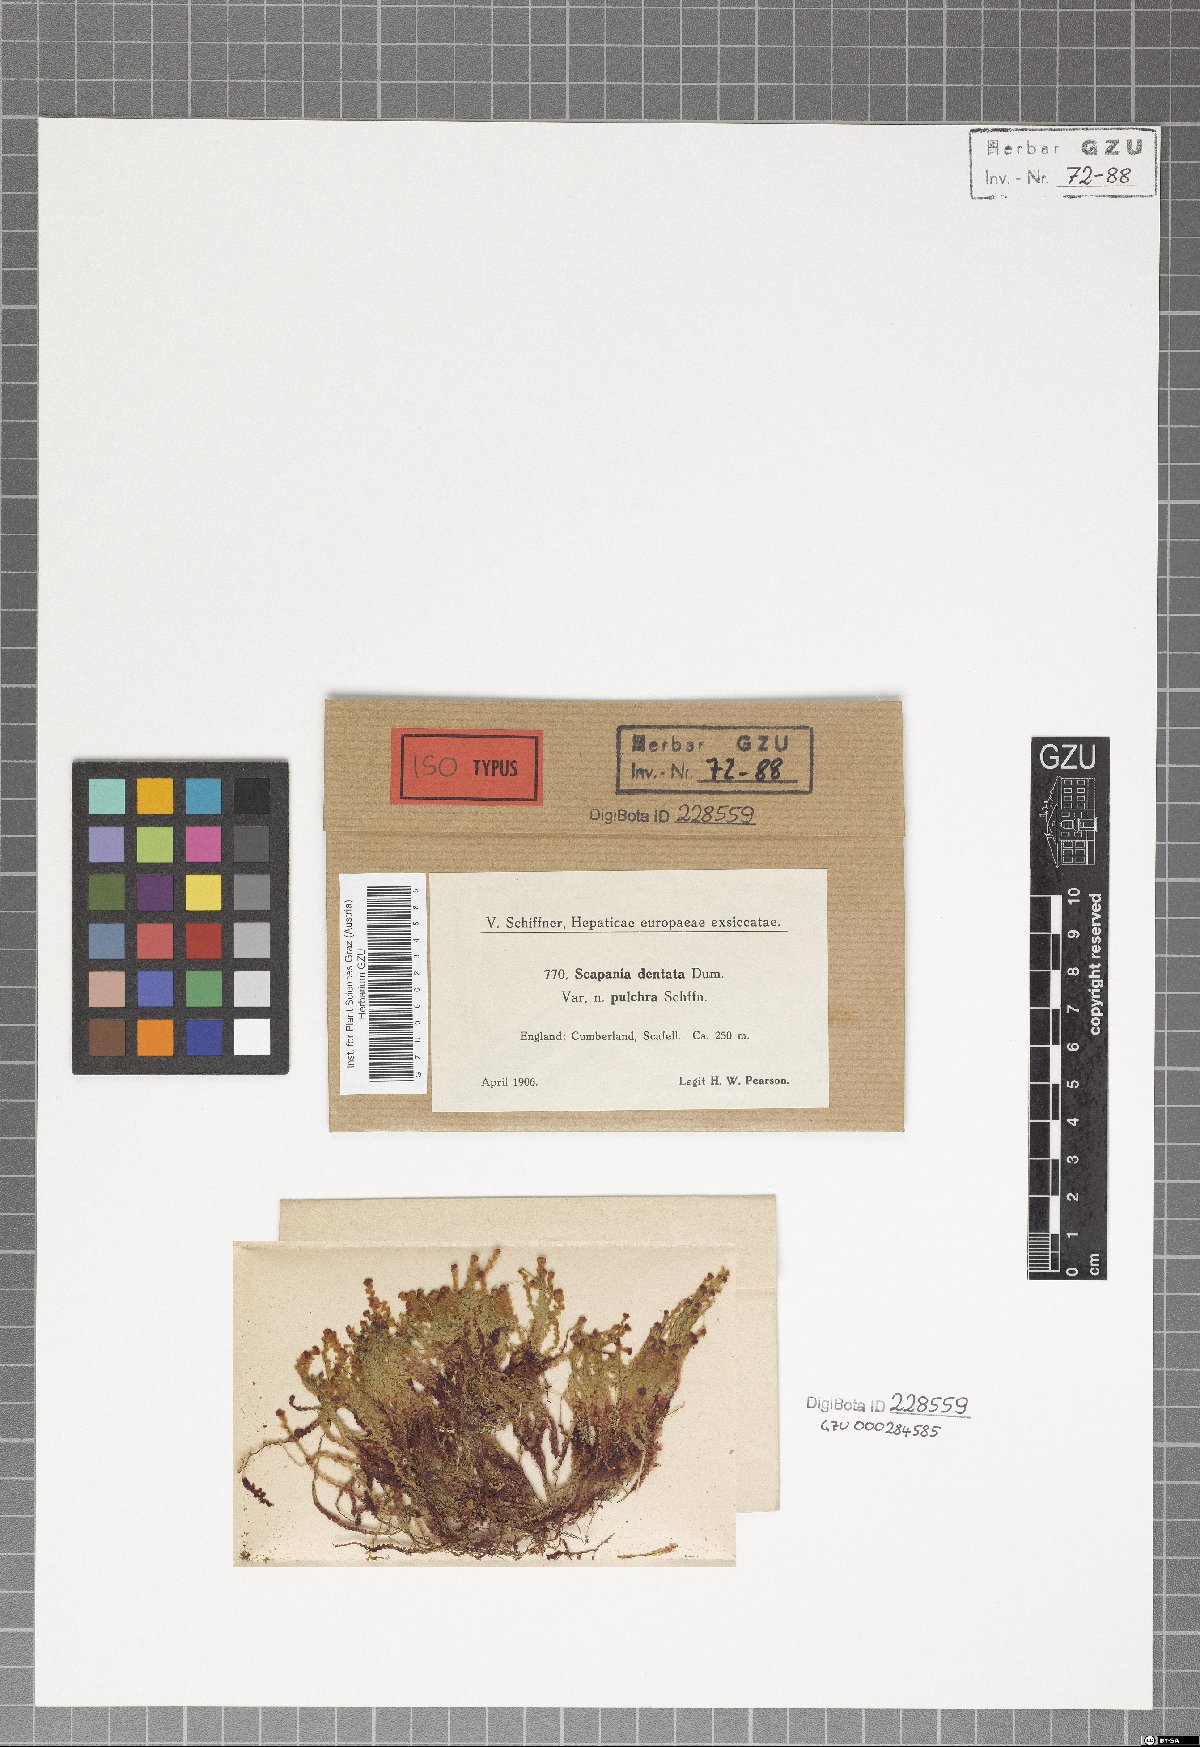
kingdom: Plantae
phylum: Marchantiophyta
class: Jungermanniopsida
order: Jungermanniales
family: Scapaniaceae
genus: Scapania
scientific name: Scapania undulata
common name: Water earwort
